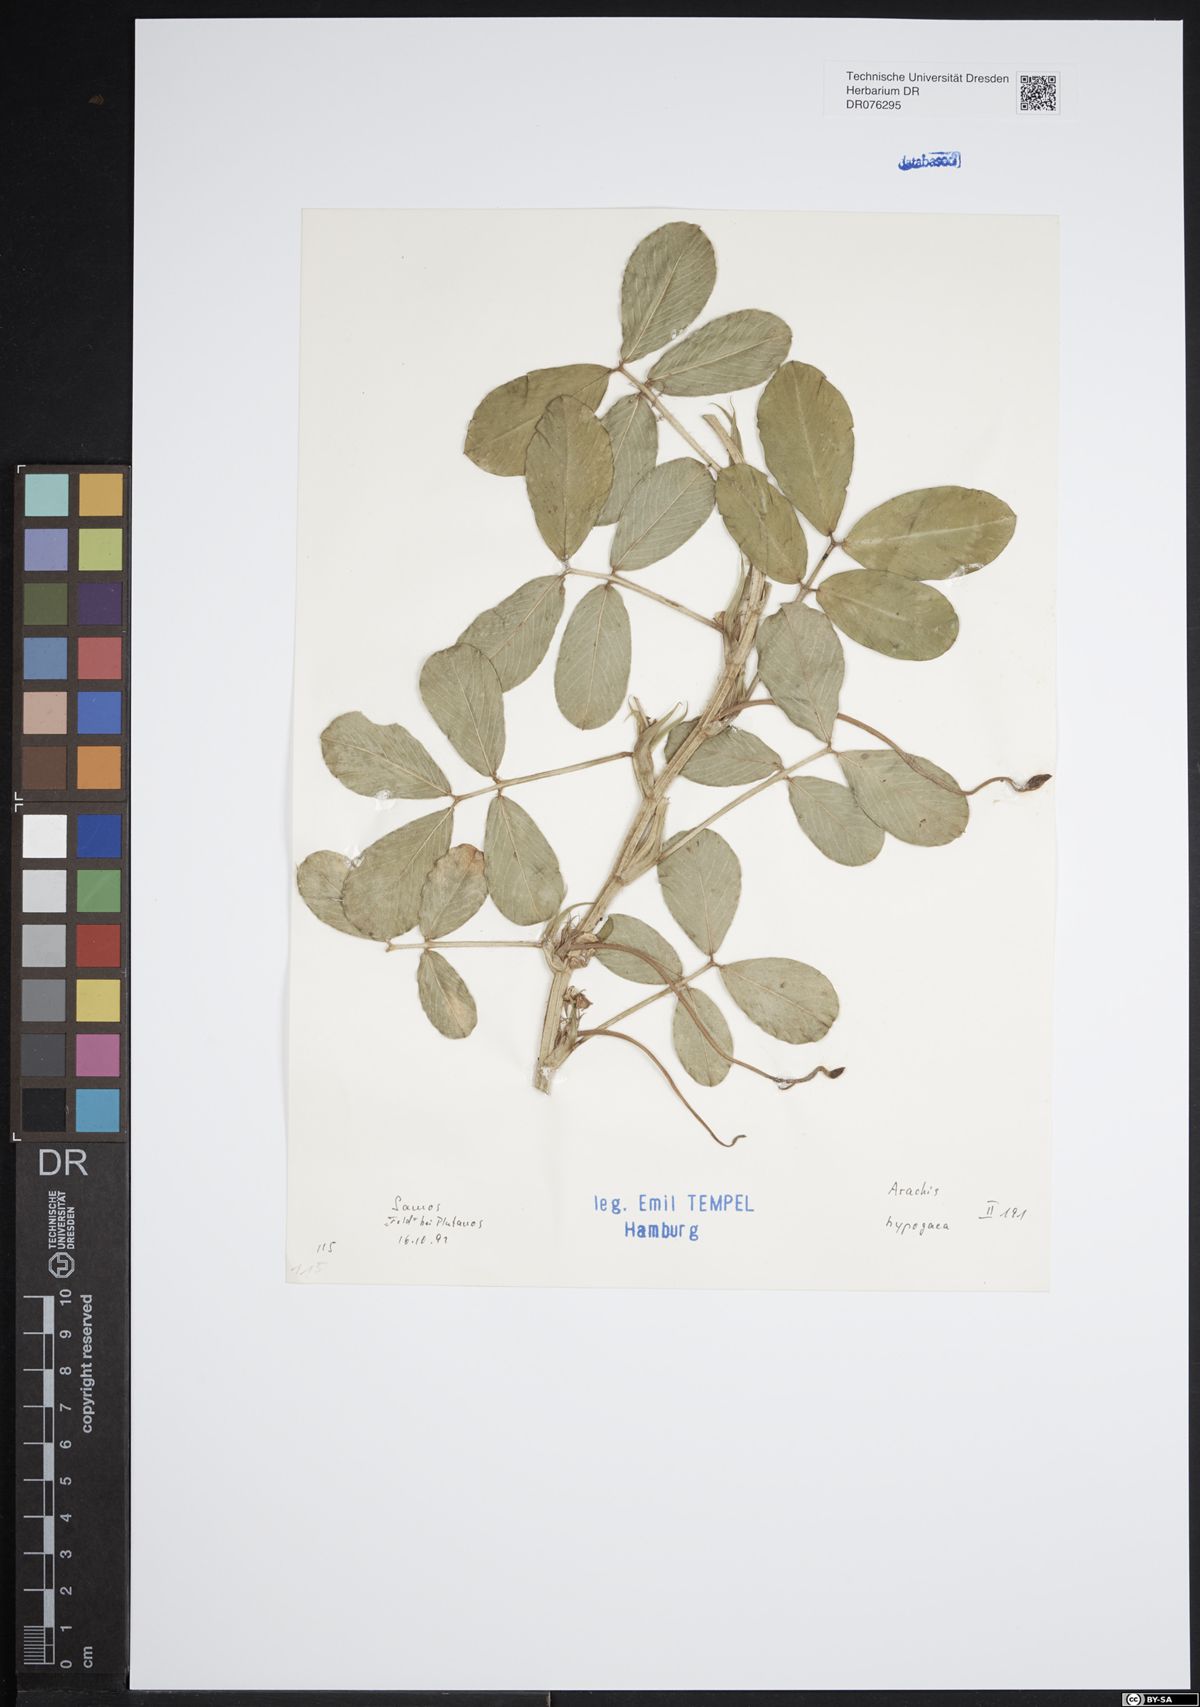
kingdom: Plantae
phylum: Tracheophyta
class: Magnoliopsida
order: Fabales
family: Fabaceae
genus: Arachis
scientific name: Arachis hypogaea
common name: Peanut
